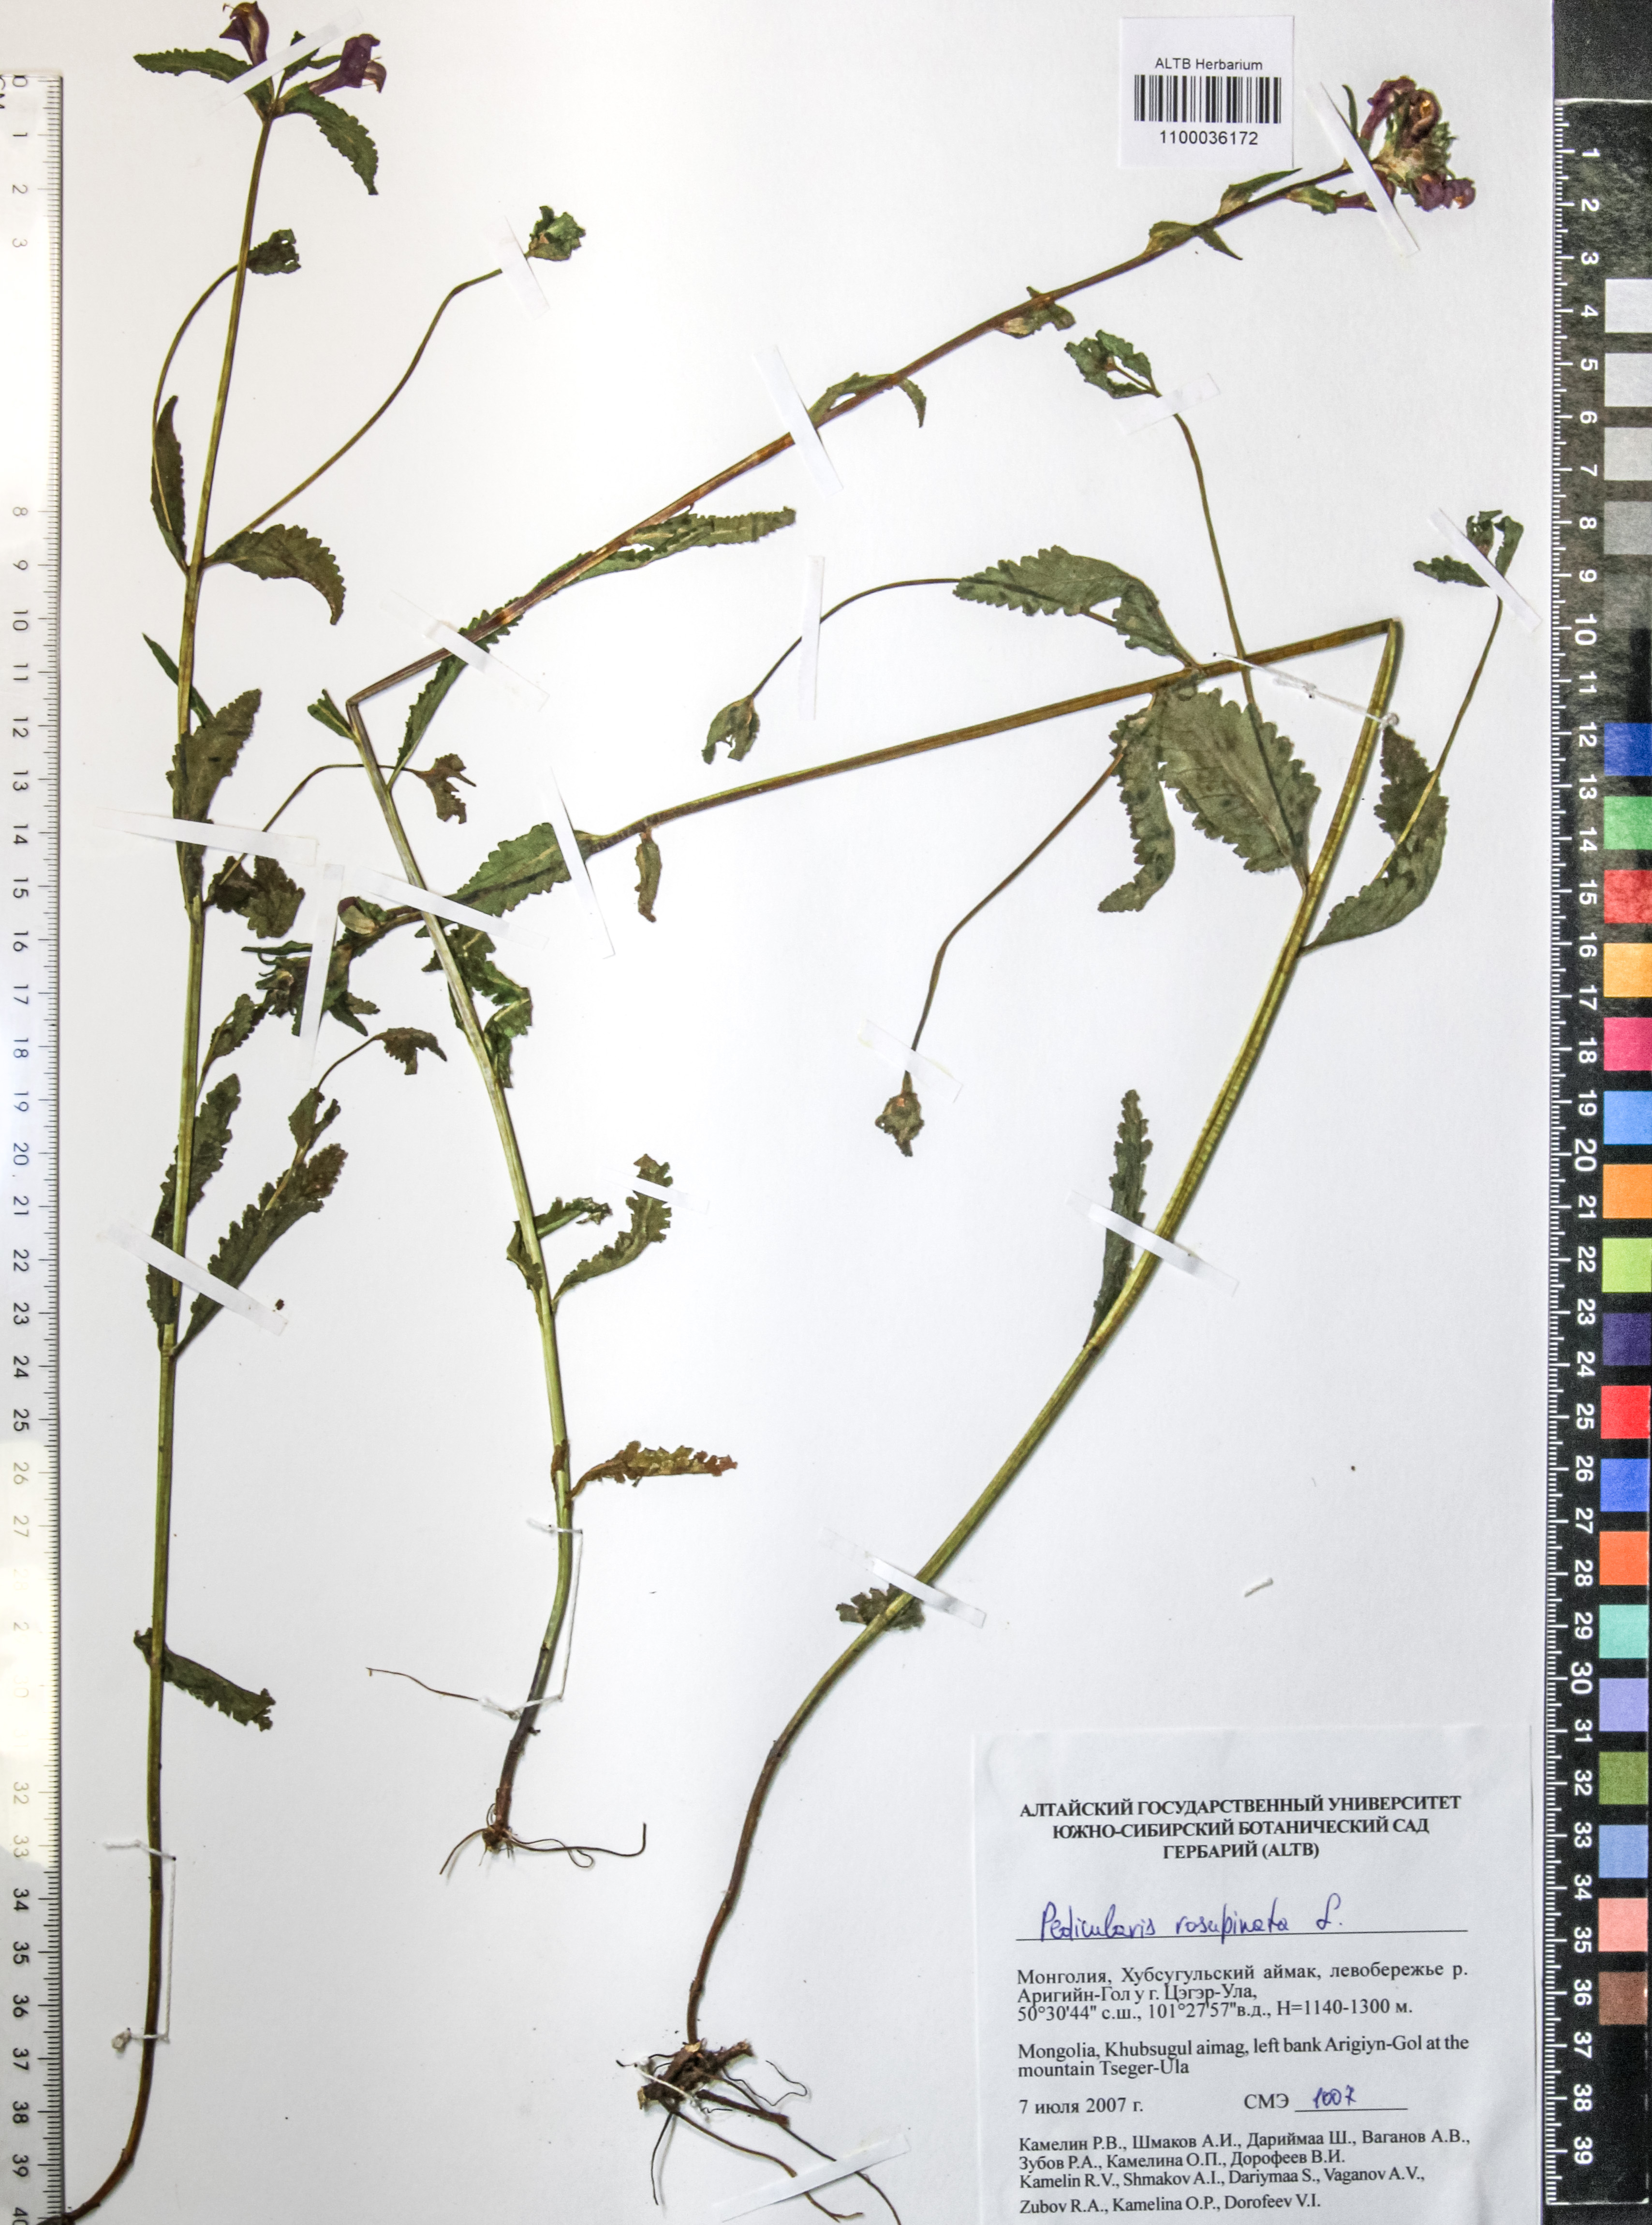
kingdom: Plantae
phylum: Tracheophyta
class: Magnoliopsida
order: Lamiales
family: Orobanchaceae
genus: Pedicularis
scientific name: Pedicularis resupinata
